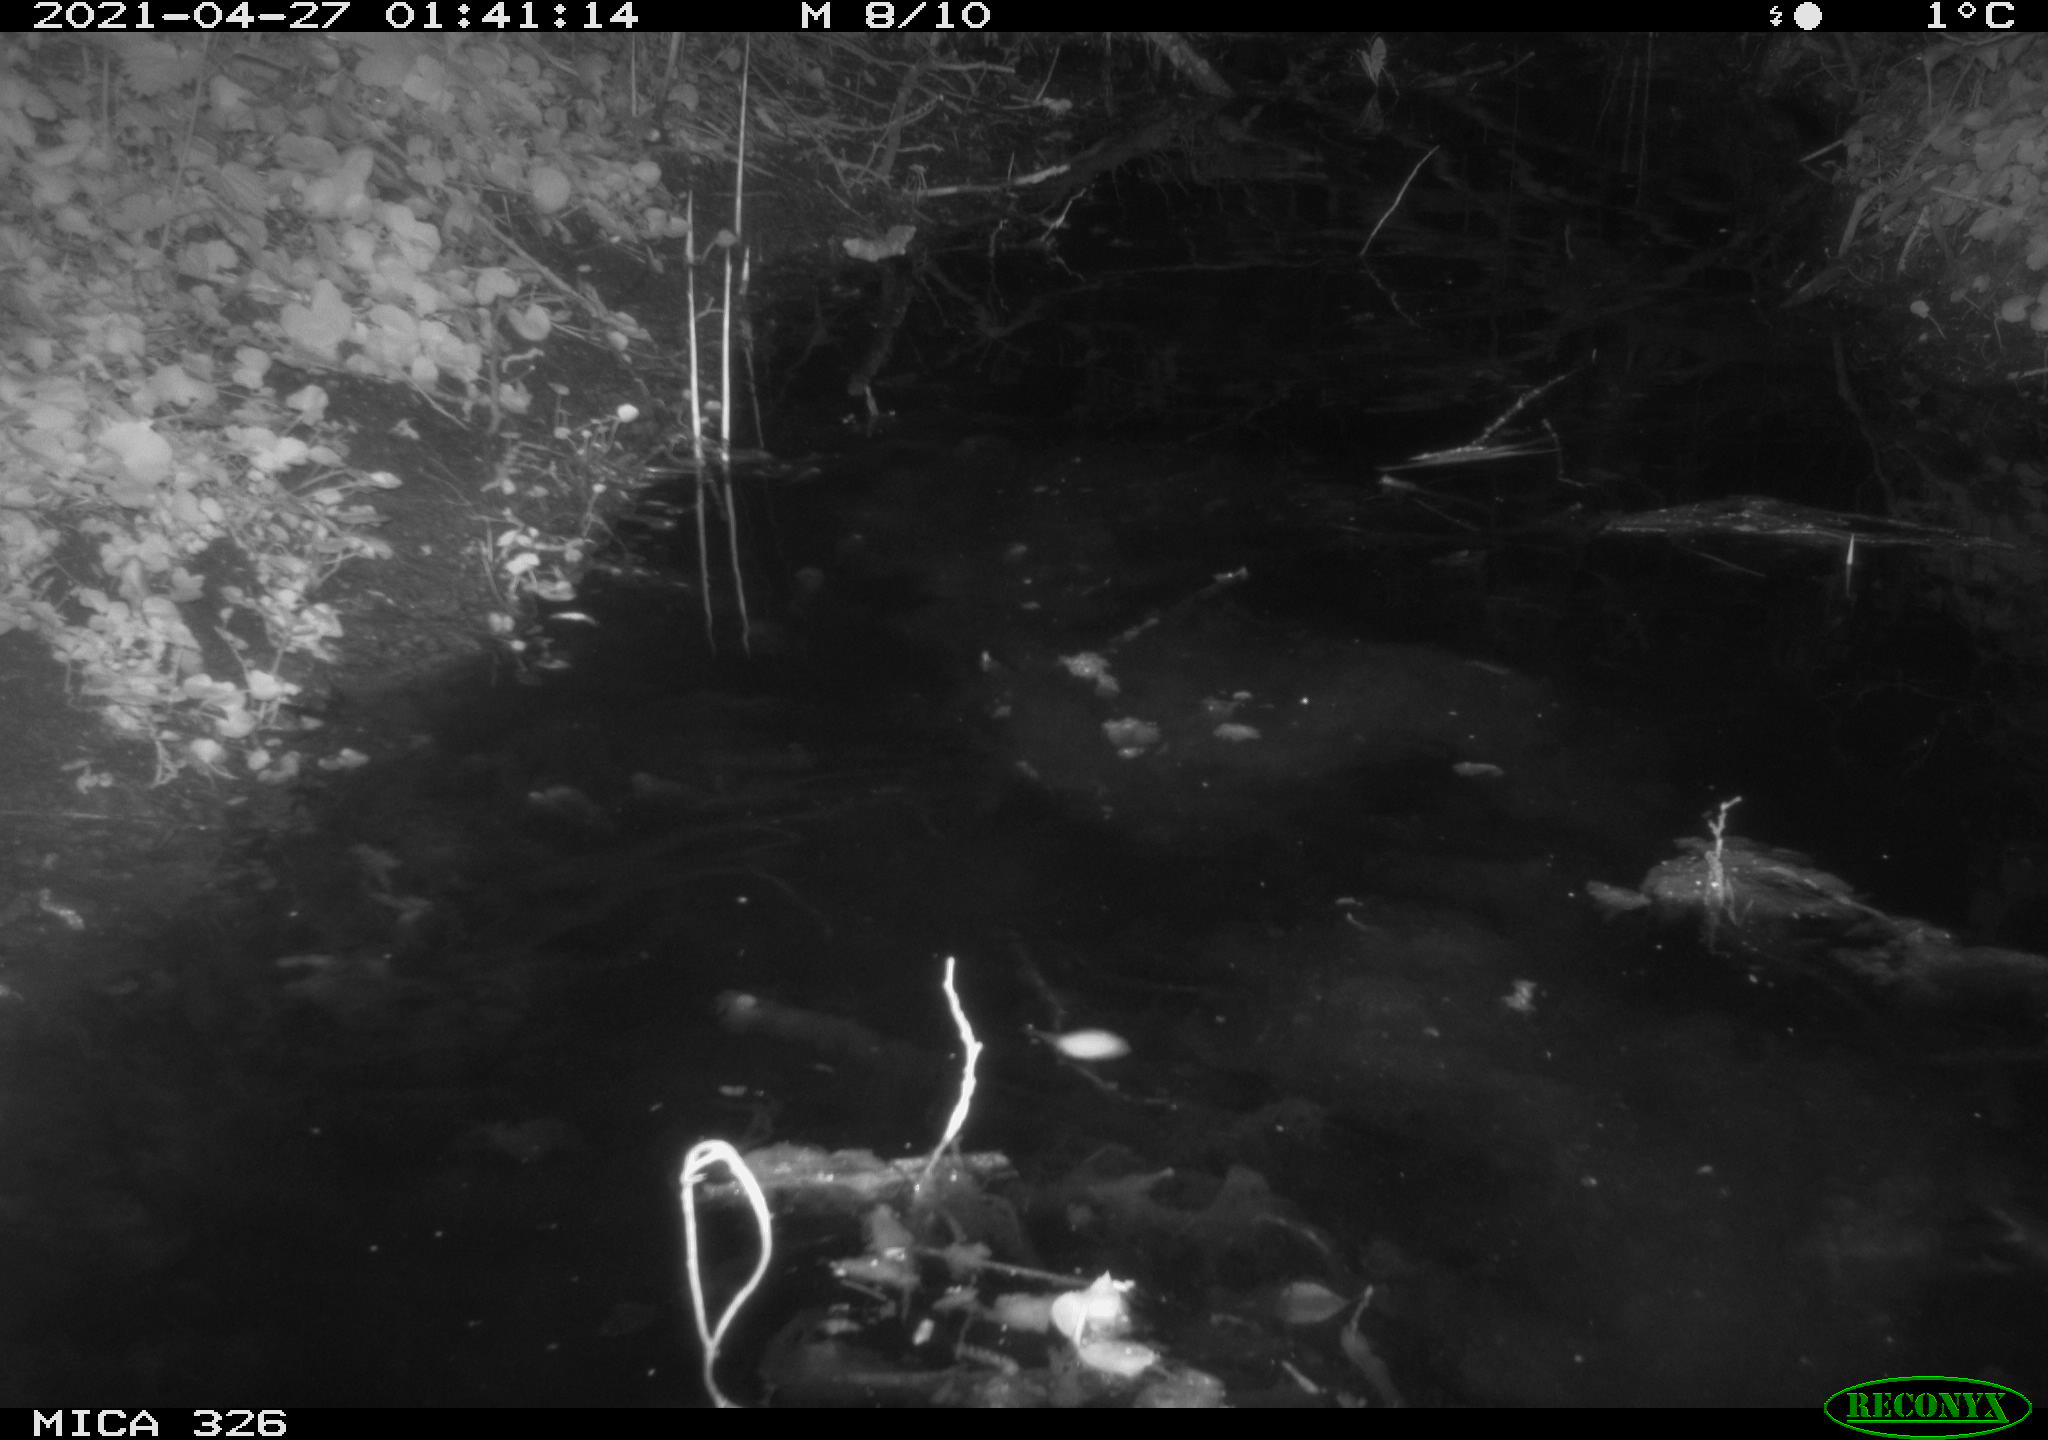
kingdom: Animalia
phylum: Chordata
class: Mammalia
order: Rodentia
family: Myocastoridae
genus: Myocastor
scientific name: Myocastor coypus
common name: Coypu
